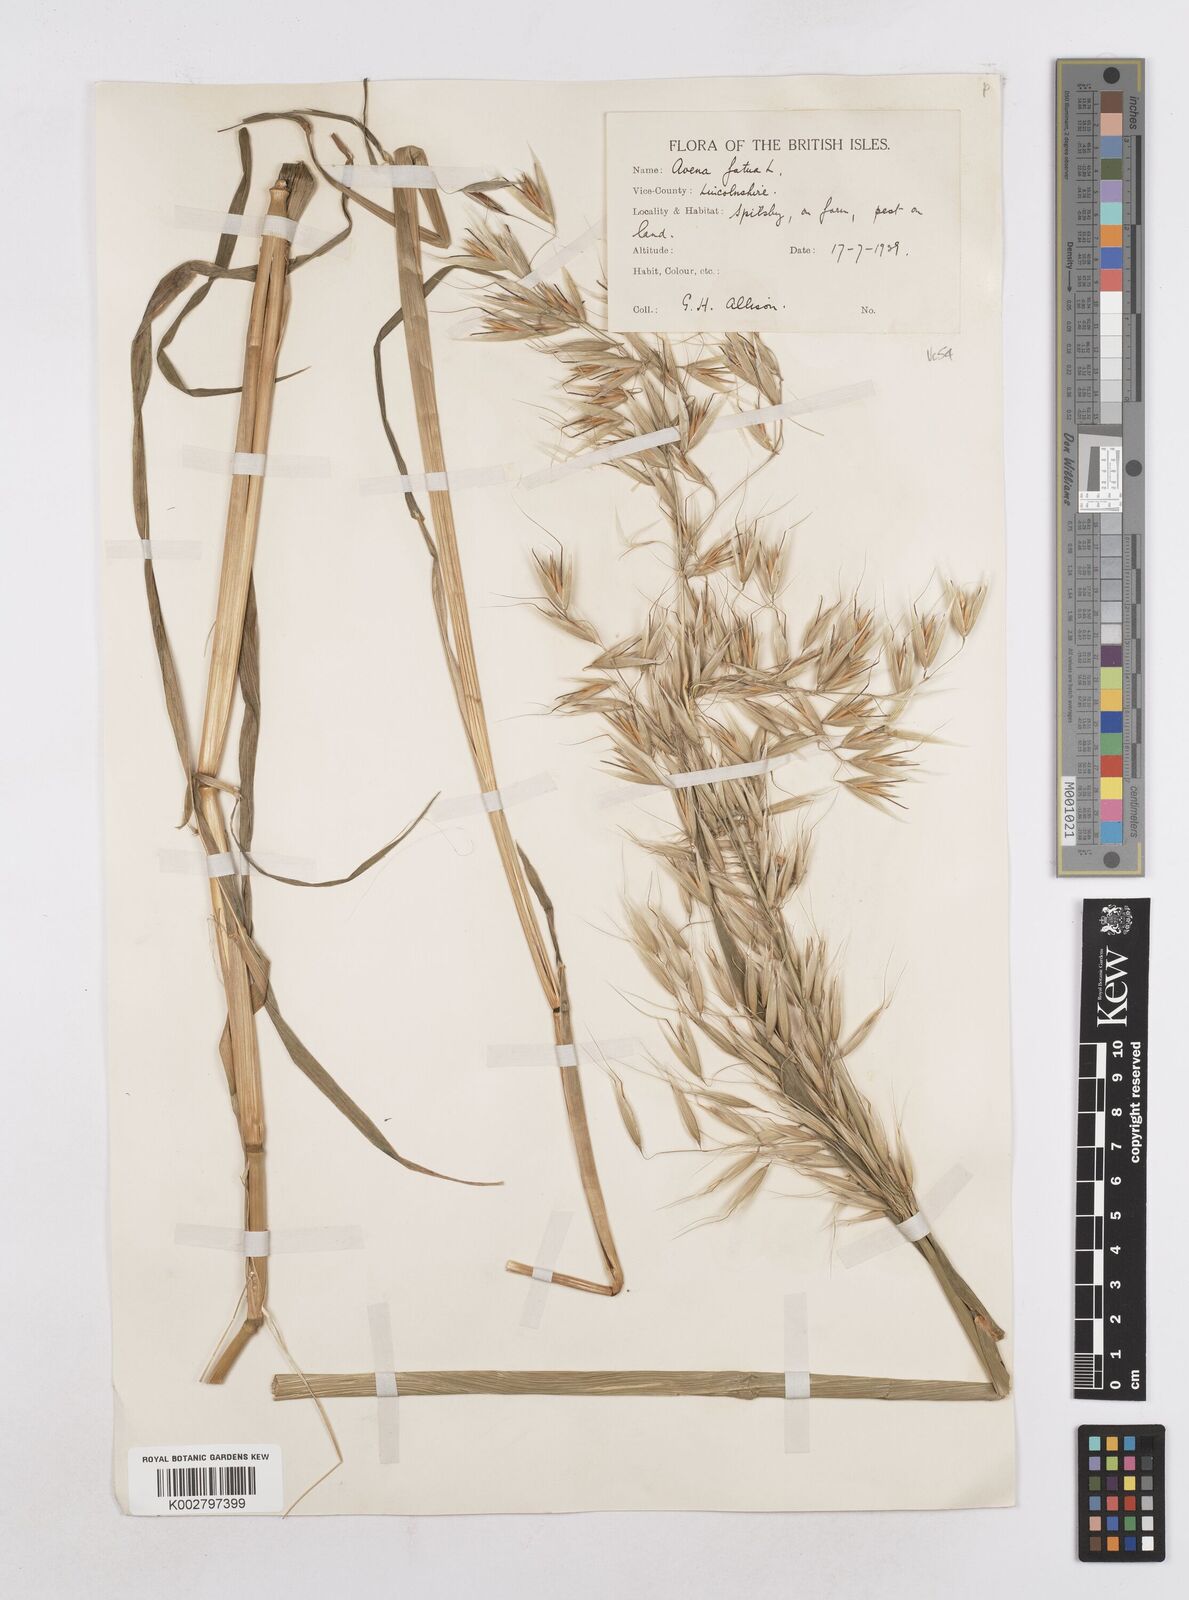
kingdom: Plantae
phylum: Tracheophyta
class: Liliopsida
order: Poales
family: Poaceae
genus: Avena
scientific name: Avena fatua
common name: Wild oat
